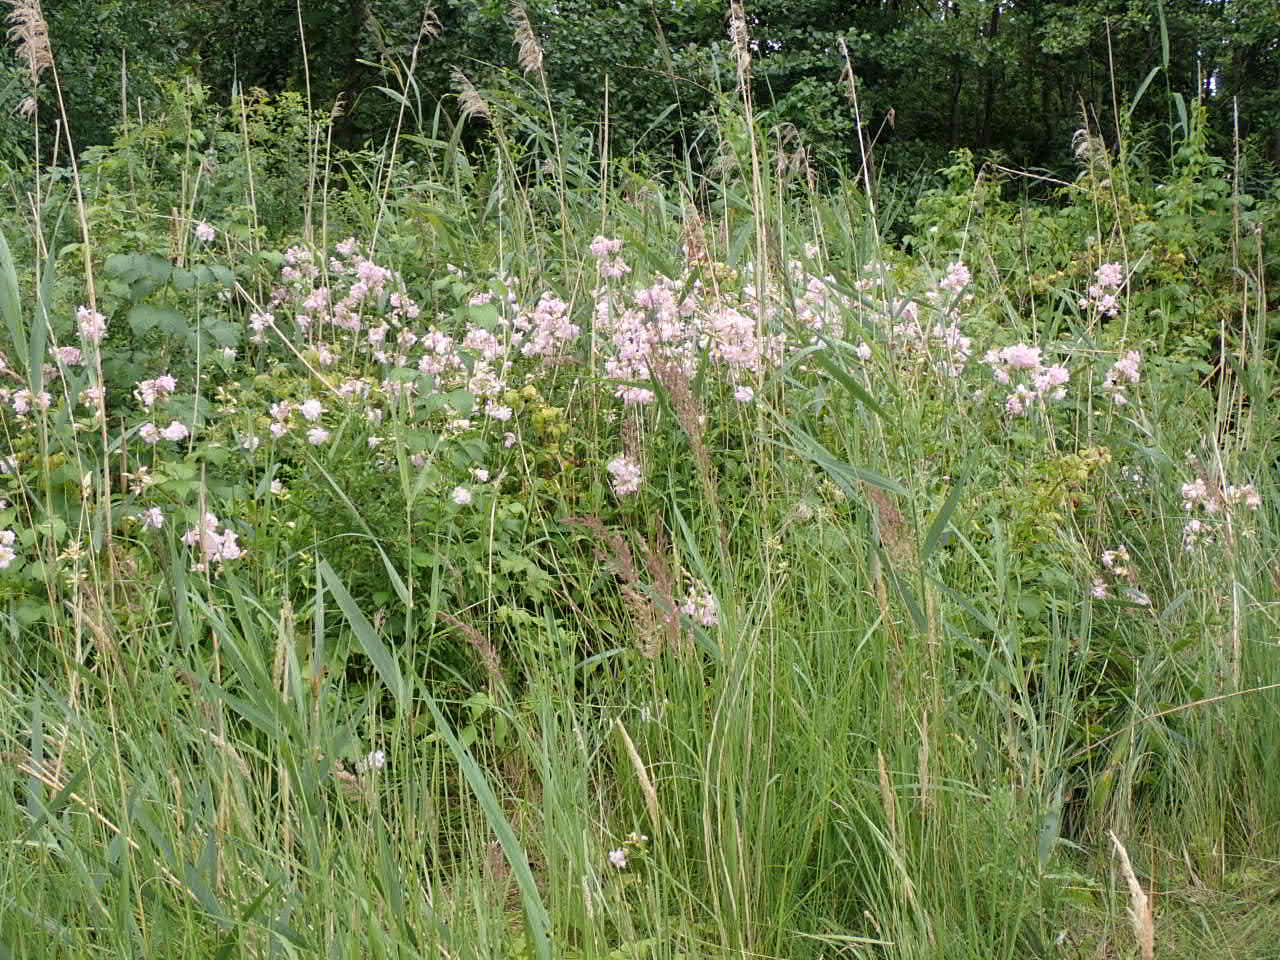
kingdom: Plantae
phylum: Tracheophyta
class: Magnoliopsida
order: Caryophyllales
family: Caryophyllaceae
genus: Saponaria
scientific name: Saponaria officinalis
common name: Sæbeurt
